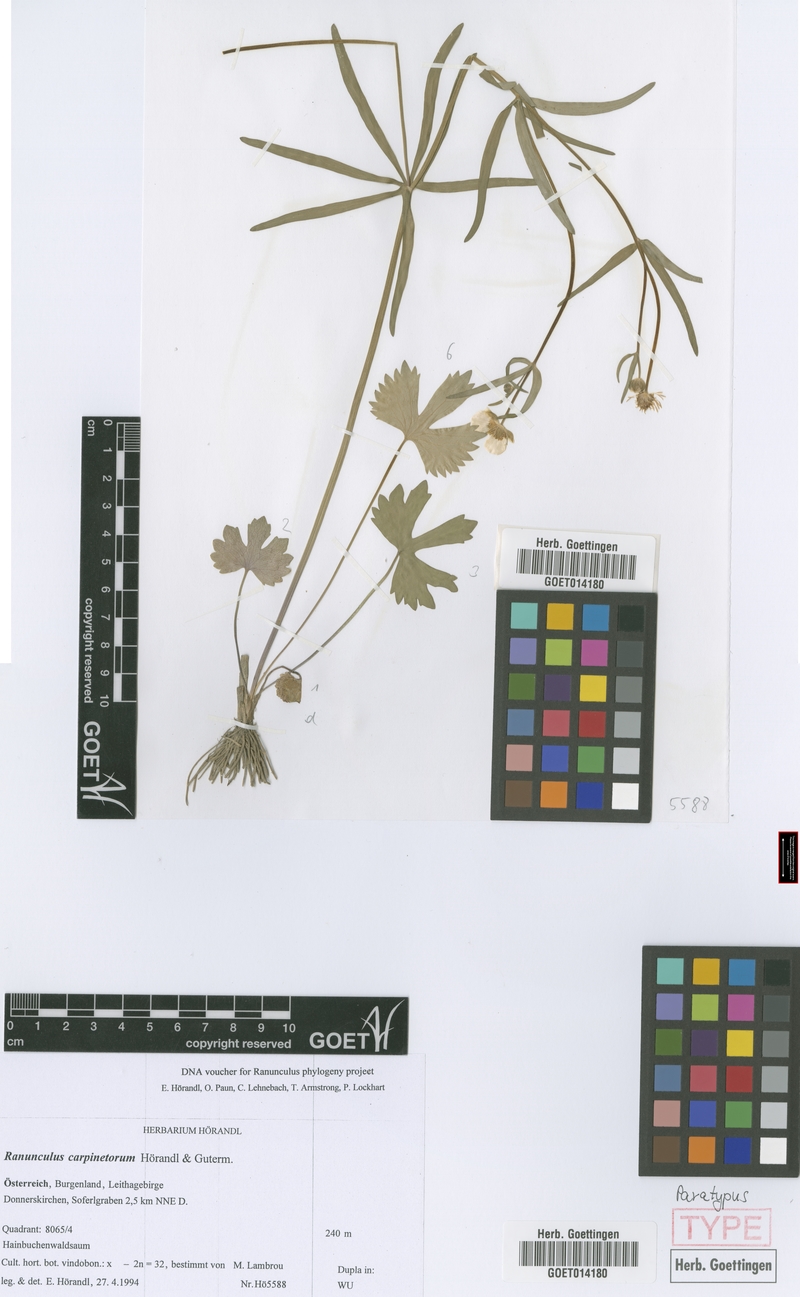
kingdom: Plantae
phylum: Tracheophyta
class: Magnoliopsida
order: Ranunculales
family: Ranunculaceae
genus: Ranunculus
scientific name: Ranunculus carpinetorum
